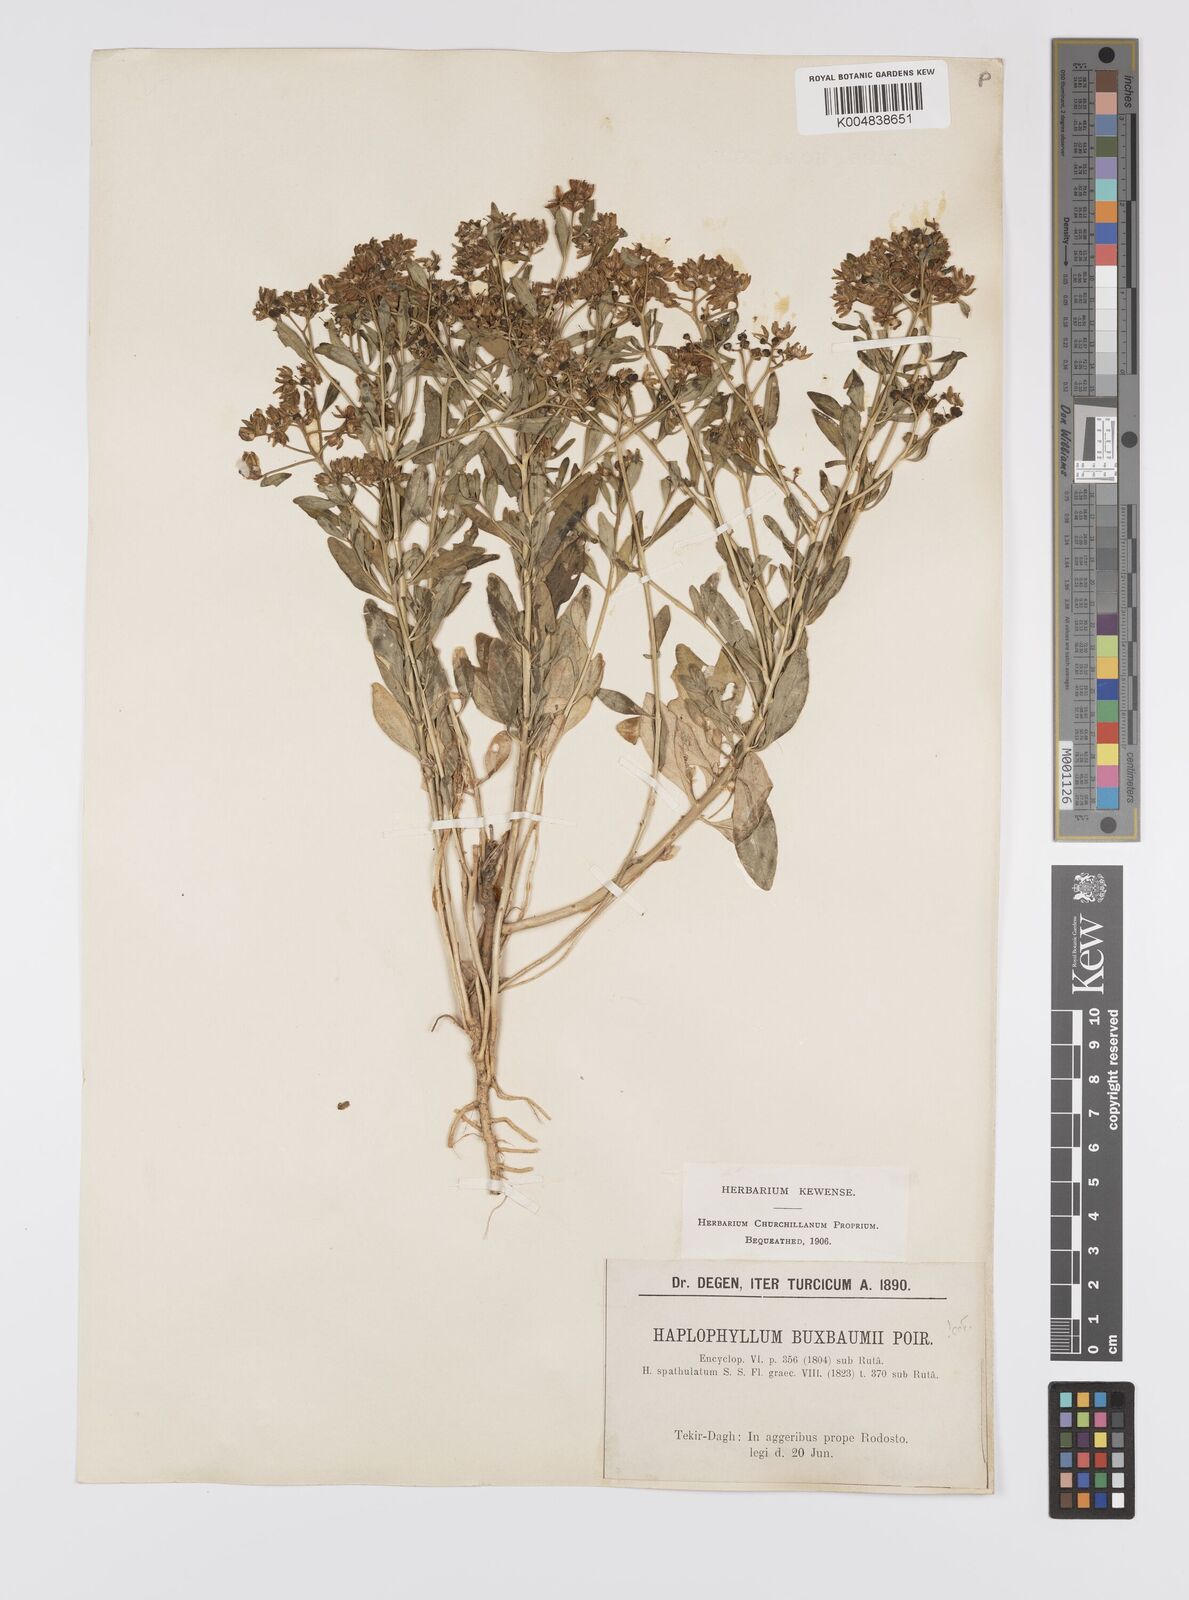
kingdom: Plantae
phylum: Tracheophyta
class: Magnoliopsida
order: Sapindales
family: Rutaceae
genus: Haplophyllum
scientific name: Haplophyllum
